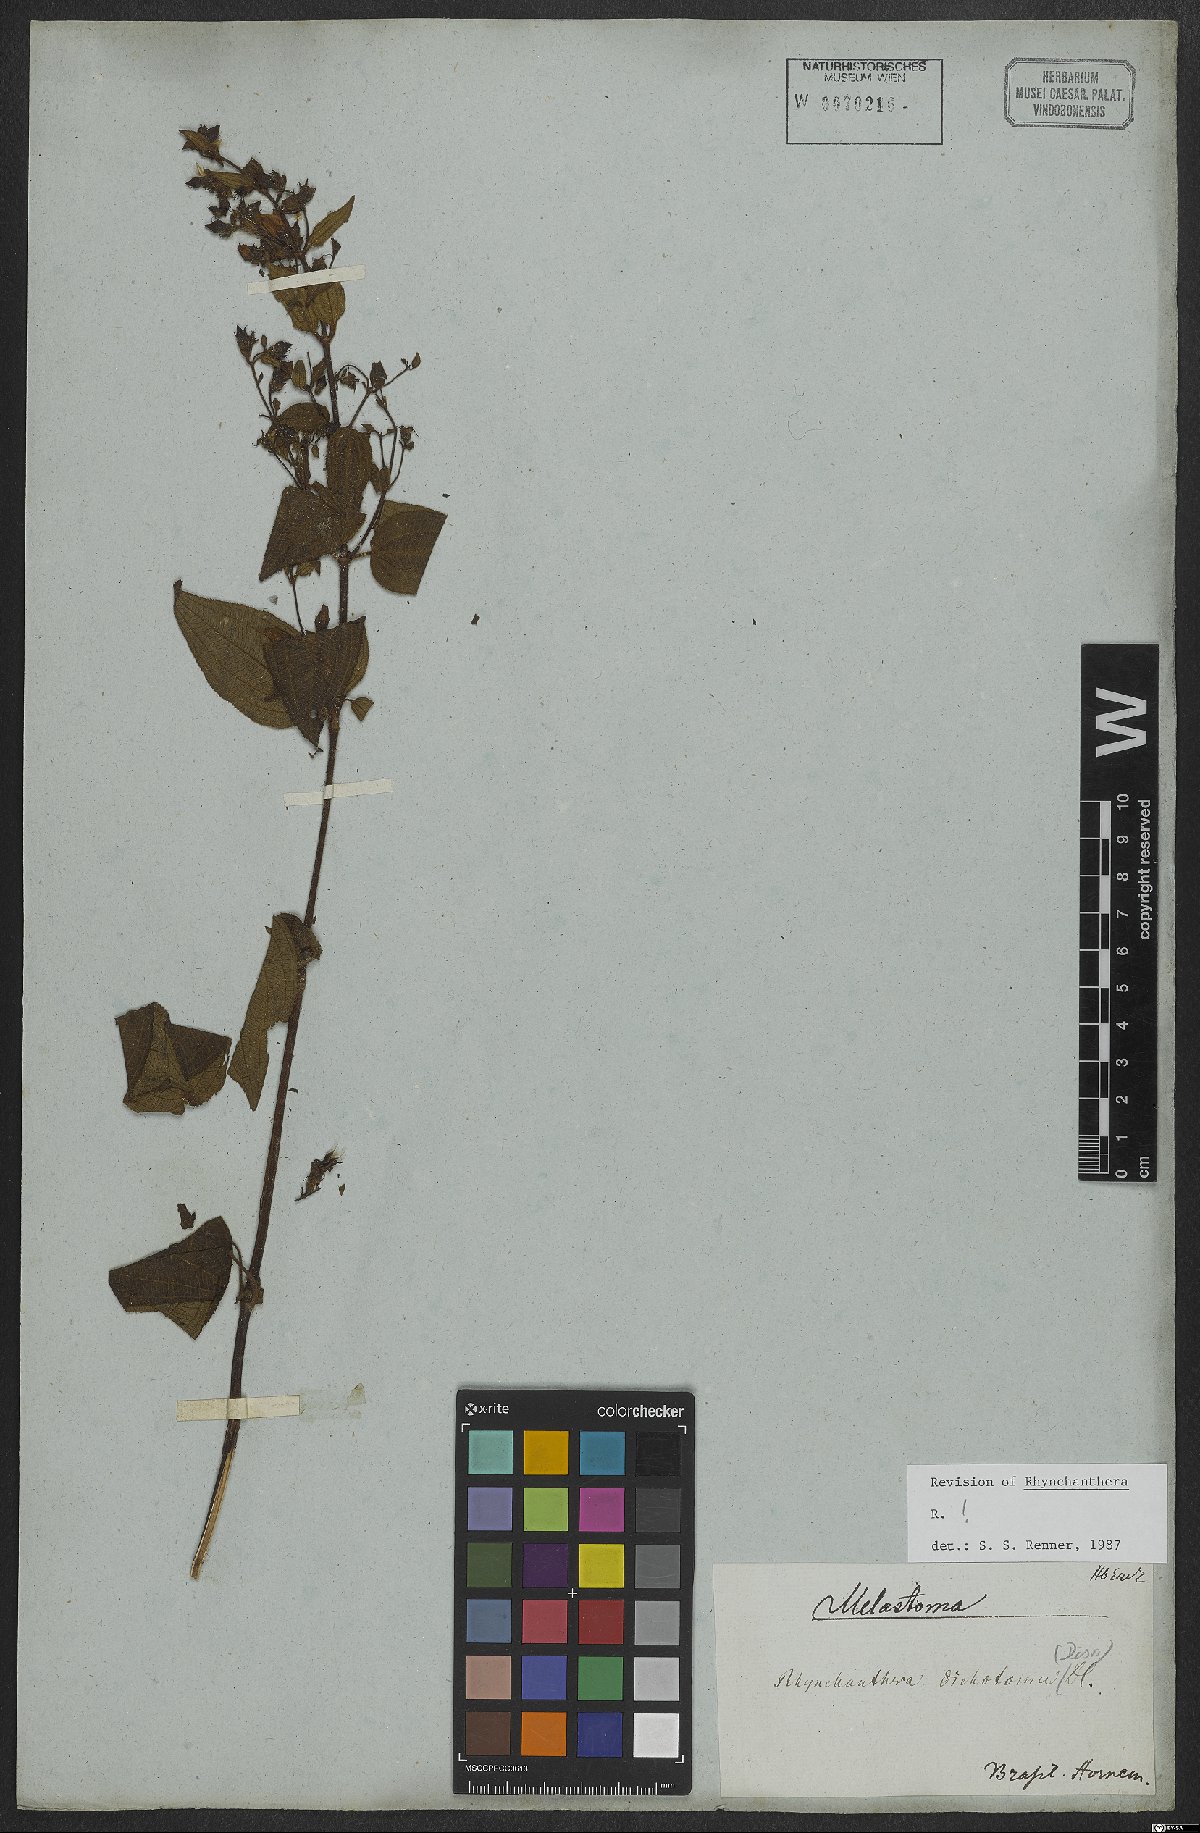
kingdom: Plantae
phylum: Tracheophyta
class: Magnoliopsida
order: Myrtales
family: Melastomataceae
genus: Rhynchanthera
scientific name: Rhynchanthera dichotoma
